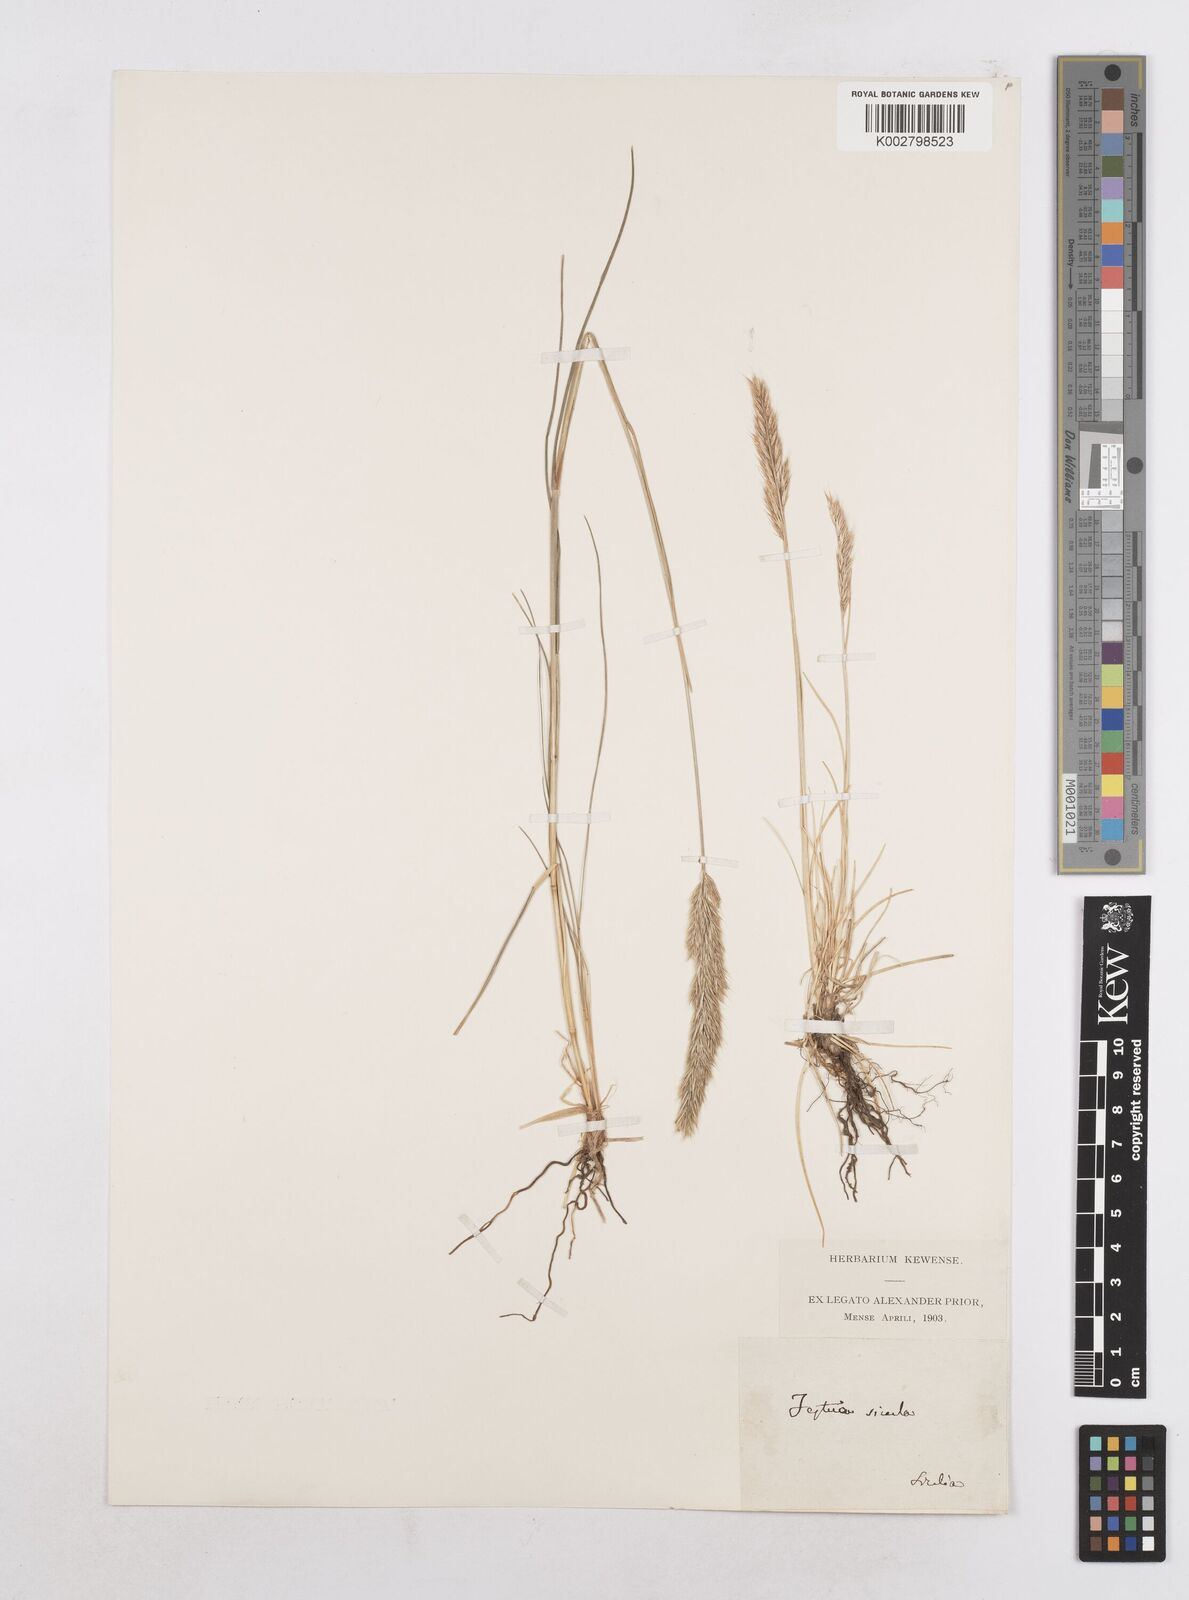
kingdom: Plantae
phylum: Tracheophyta
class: Liliopsida
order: Poales
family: Poaceae
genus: Festuca
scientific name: Festuca sicula
